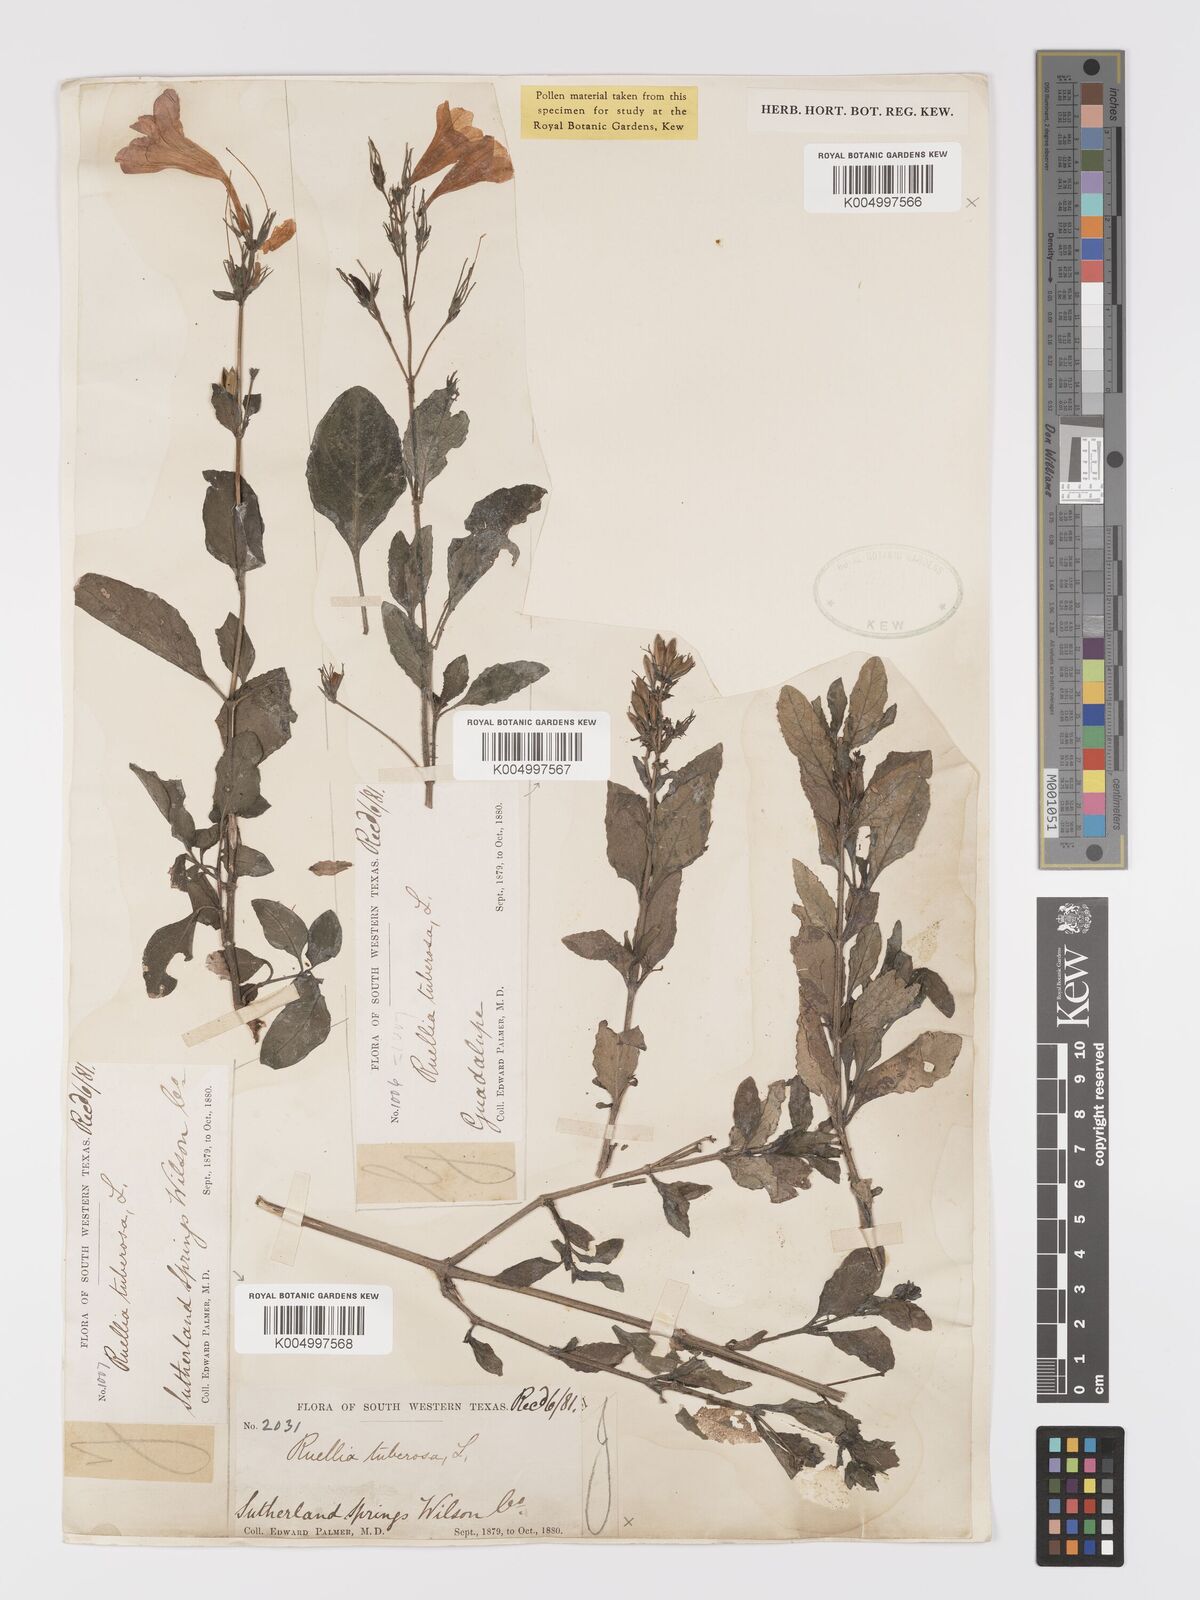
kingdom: Plantae
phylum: Tracheophyta
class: Magnoliopsida
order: Lamiales
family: Acanthaceae
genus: Ruellia
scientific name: Ruellia tuberosa
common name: Devil's bit
